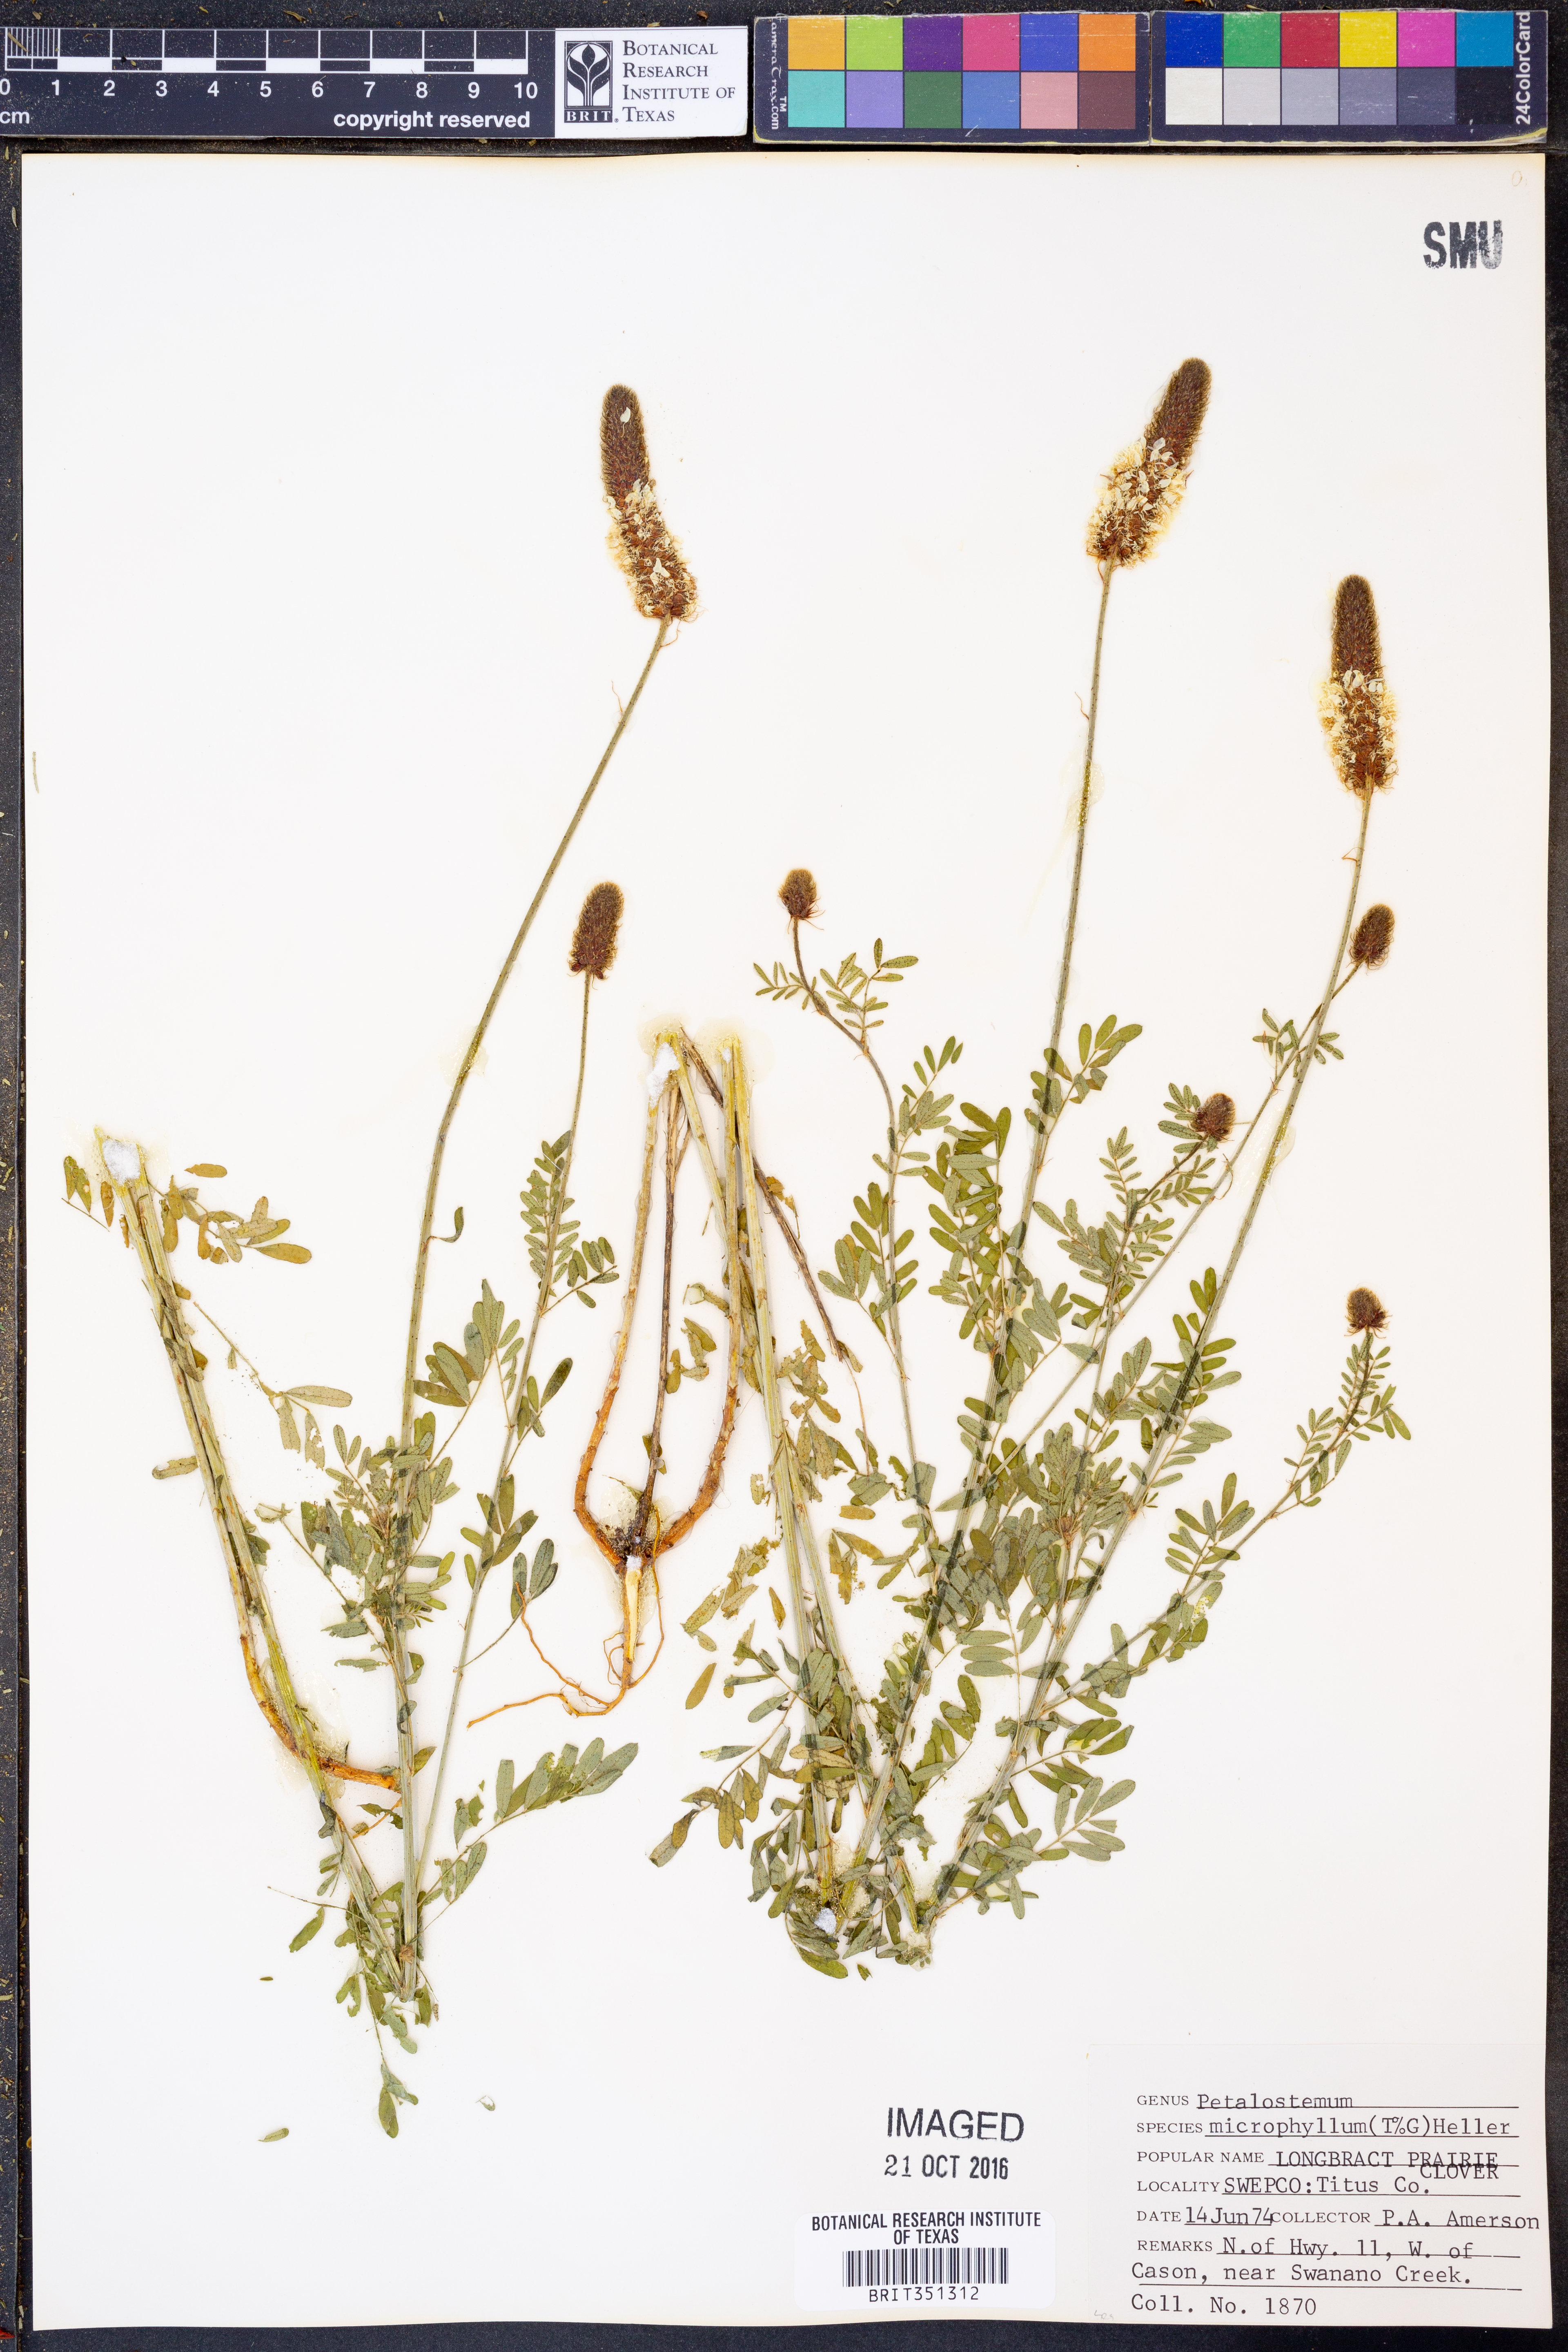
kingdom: Plantae
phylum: Tracheophyta
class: Magnoliopsida
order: Fabales
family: Fabaceae
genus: Dalea
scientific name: Dalea drummondiana
